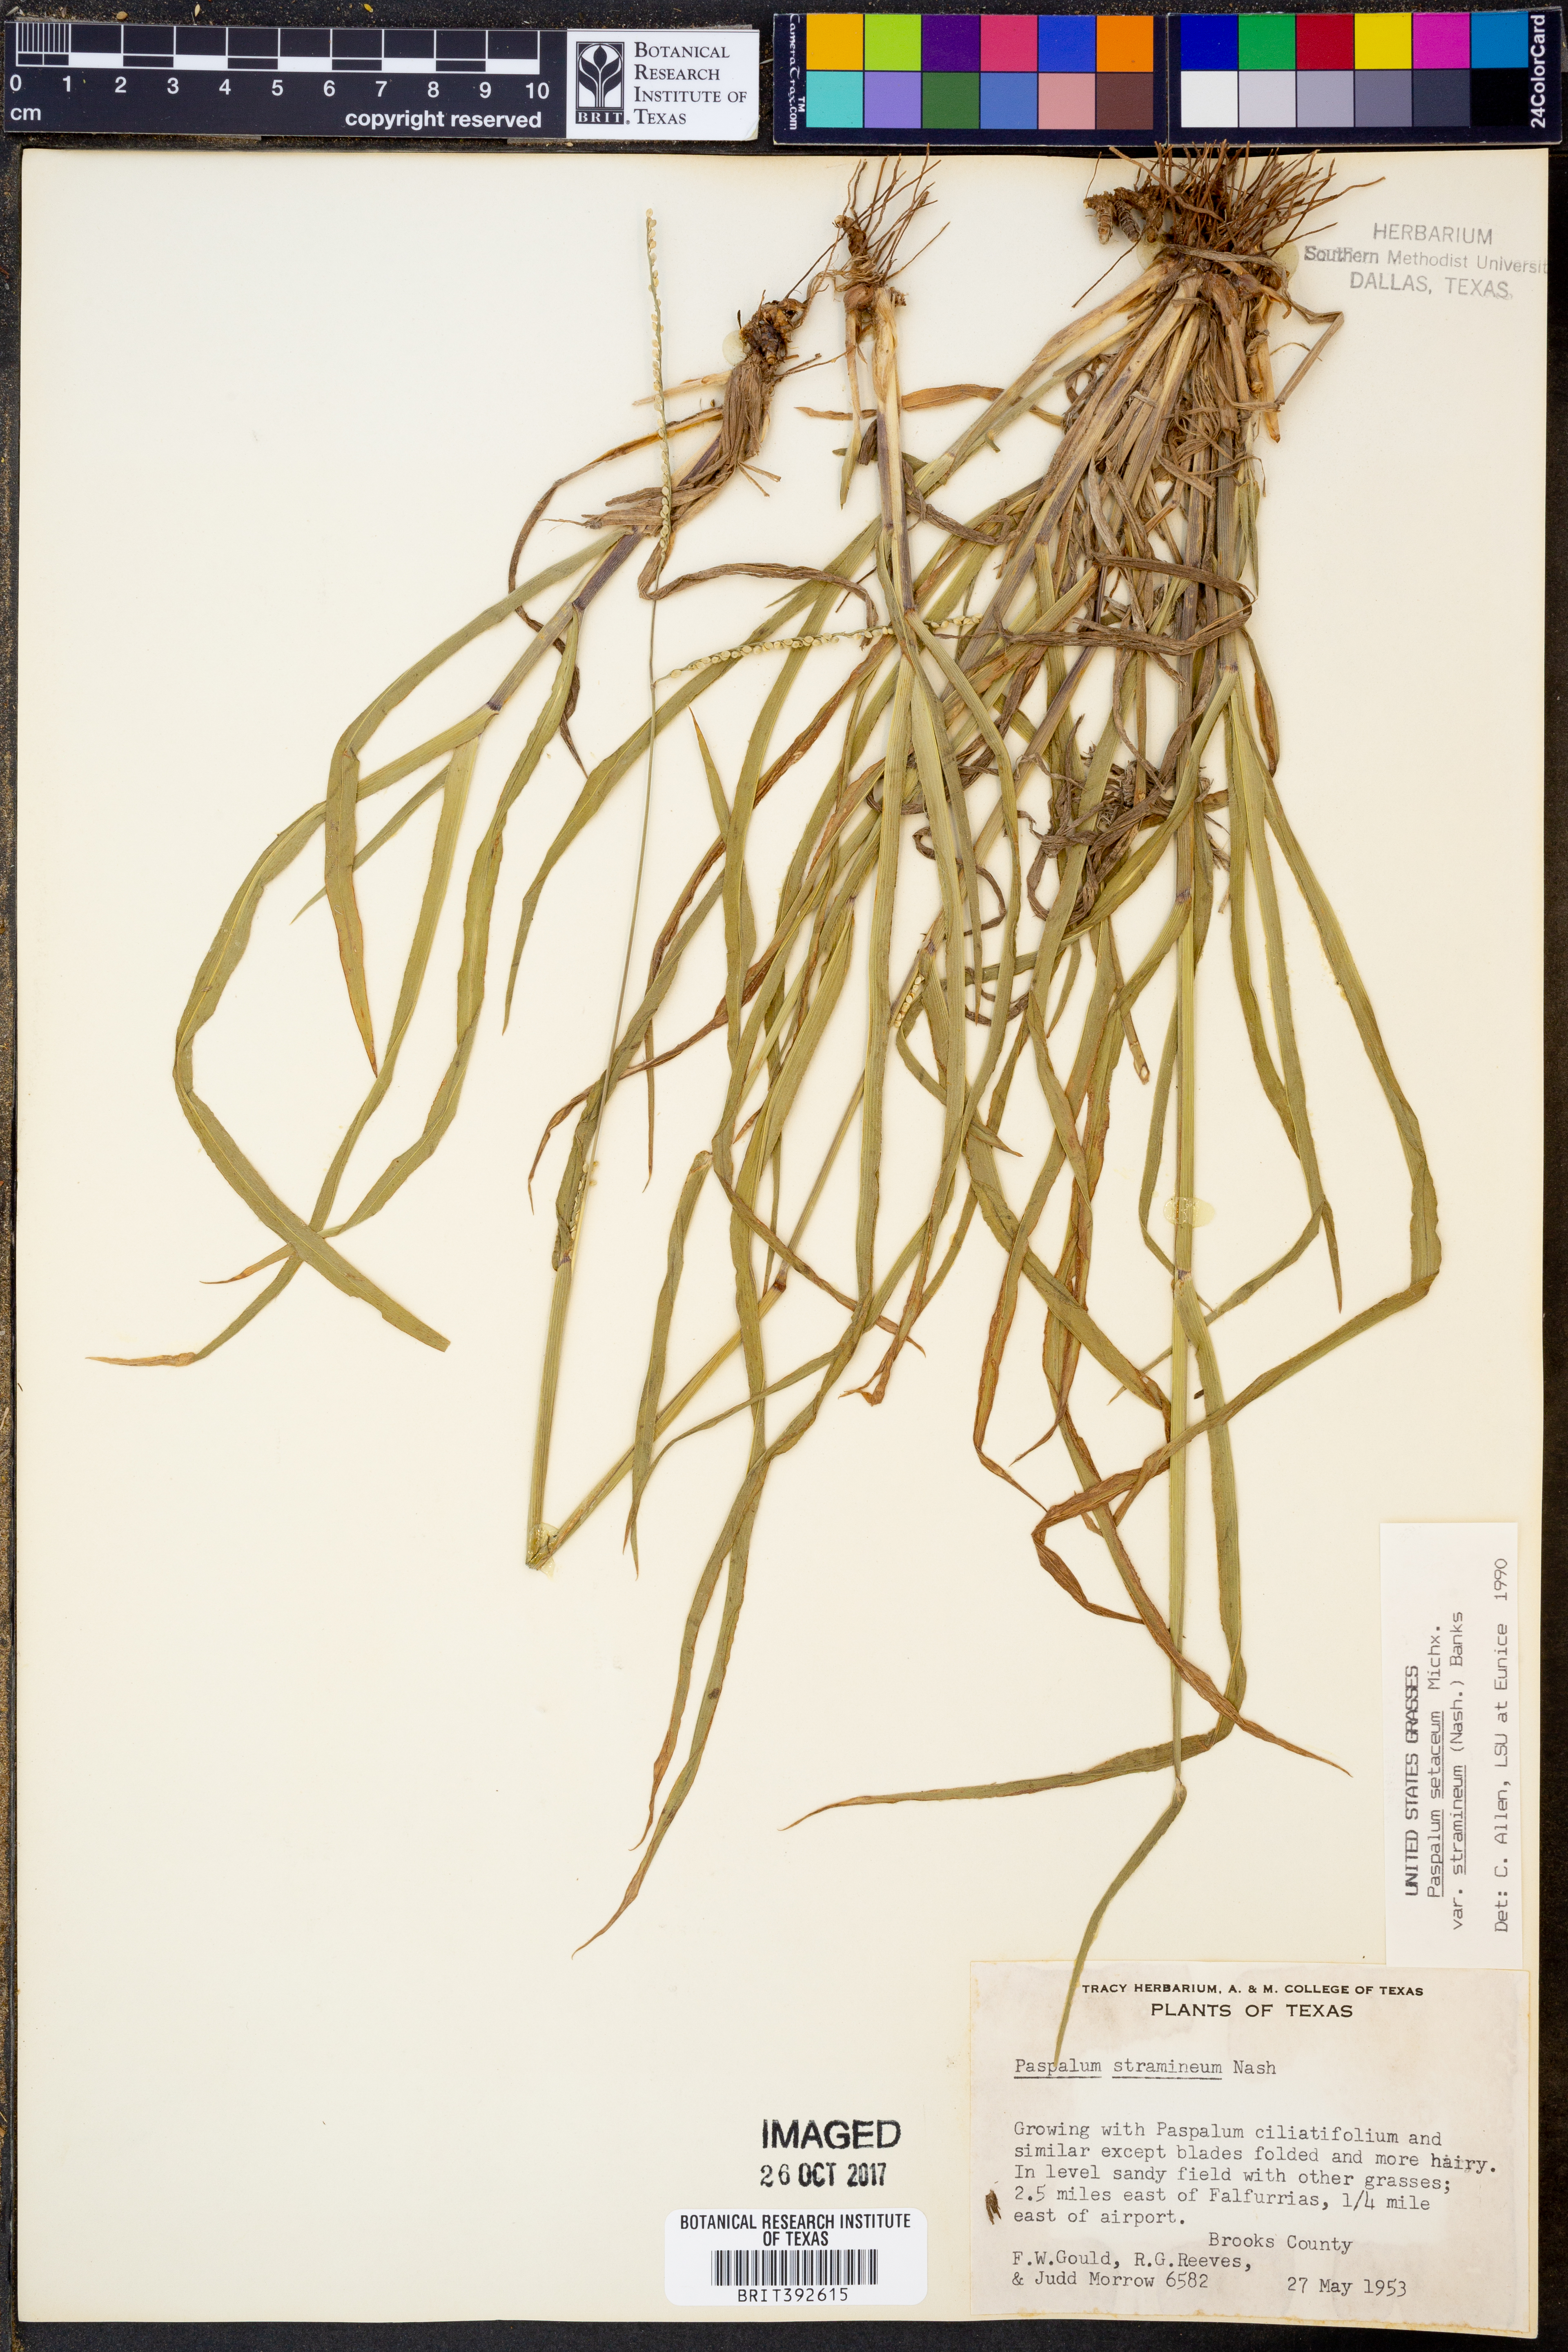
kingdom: Plantae
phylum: Tracheophyta
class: Liliopsida
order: Poales
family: Poaceae
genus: Paspalum
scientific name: Paspalum setaceum
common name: Slender paspalum
